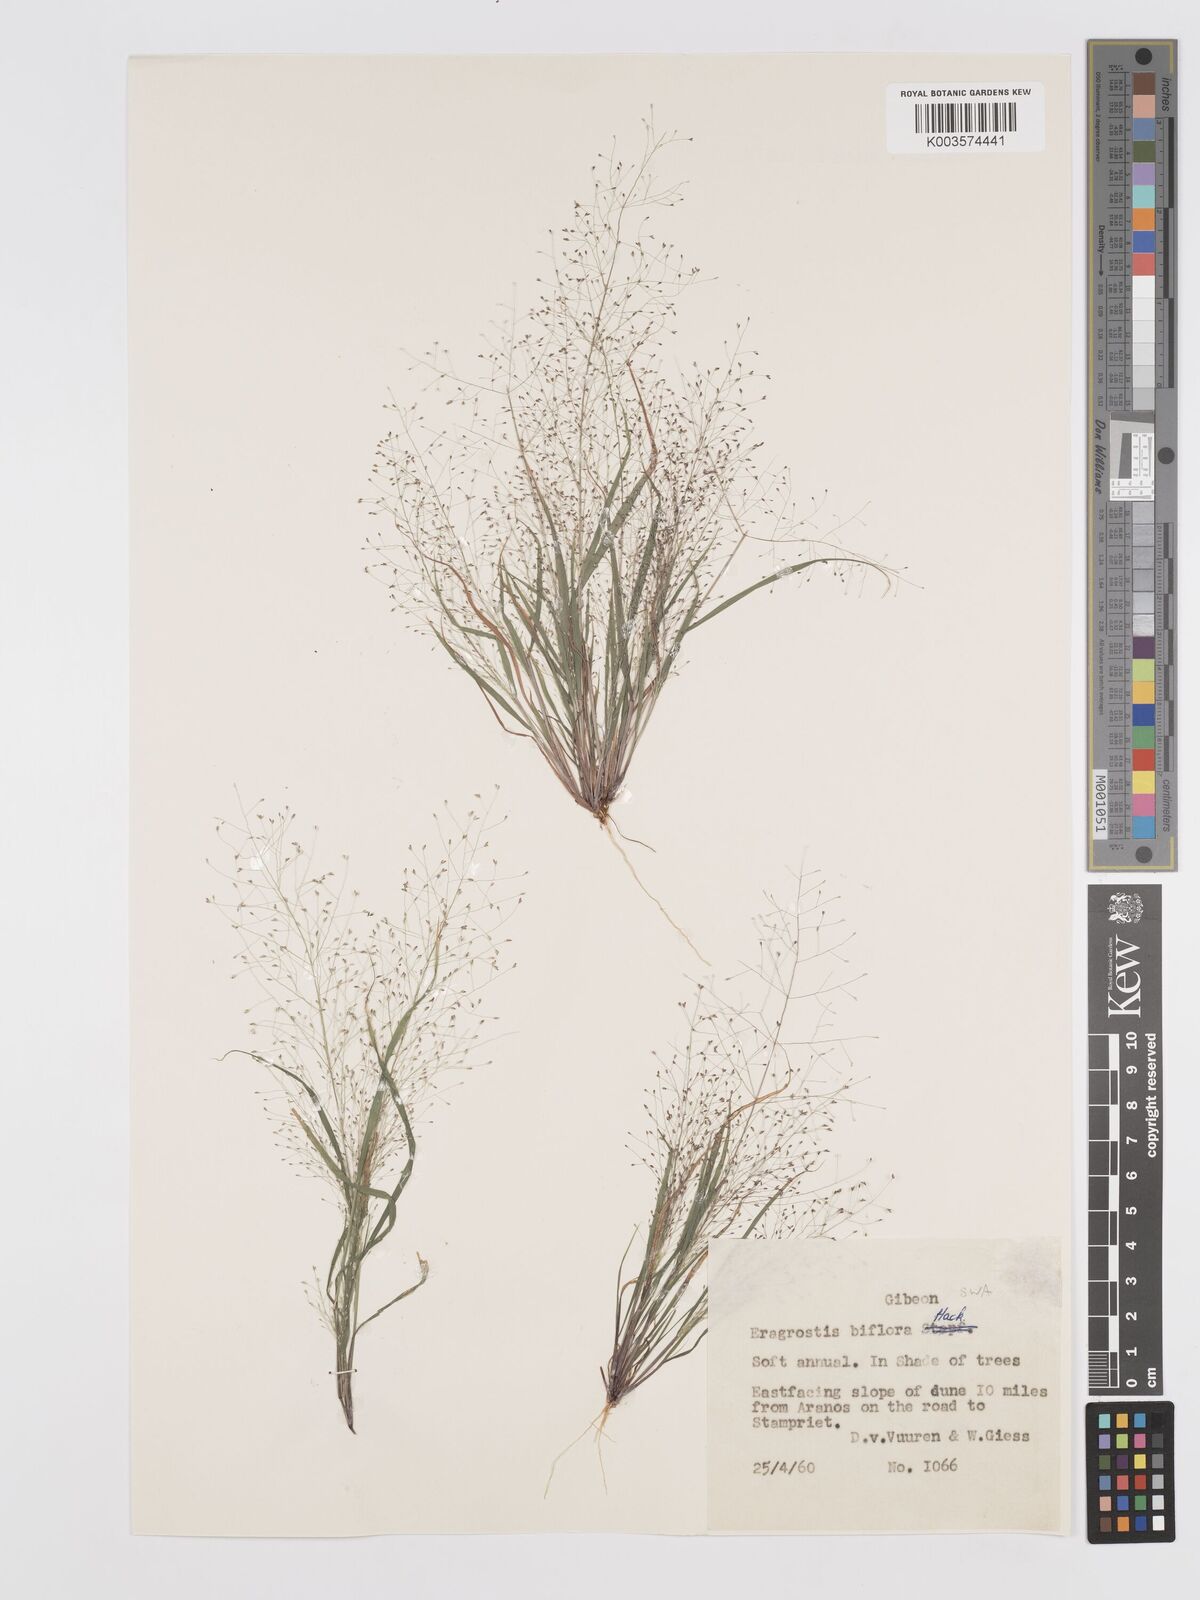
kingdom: Plantae
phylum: Tracheophyta
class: Liliopsida
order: Poales
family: Poaceae
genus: Eragrostis
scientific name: Eragrostis biflora
